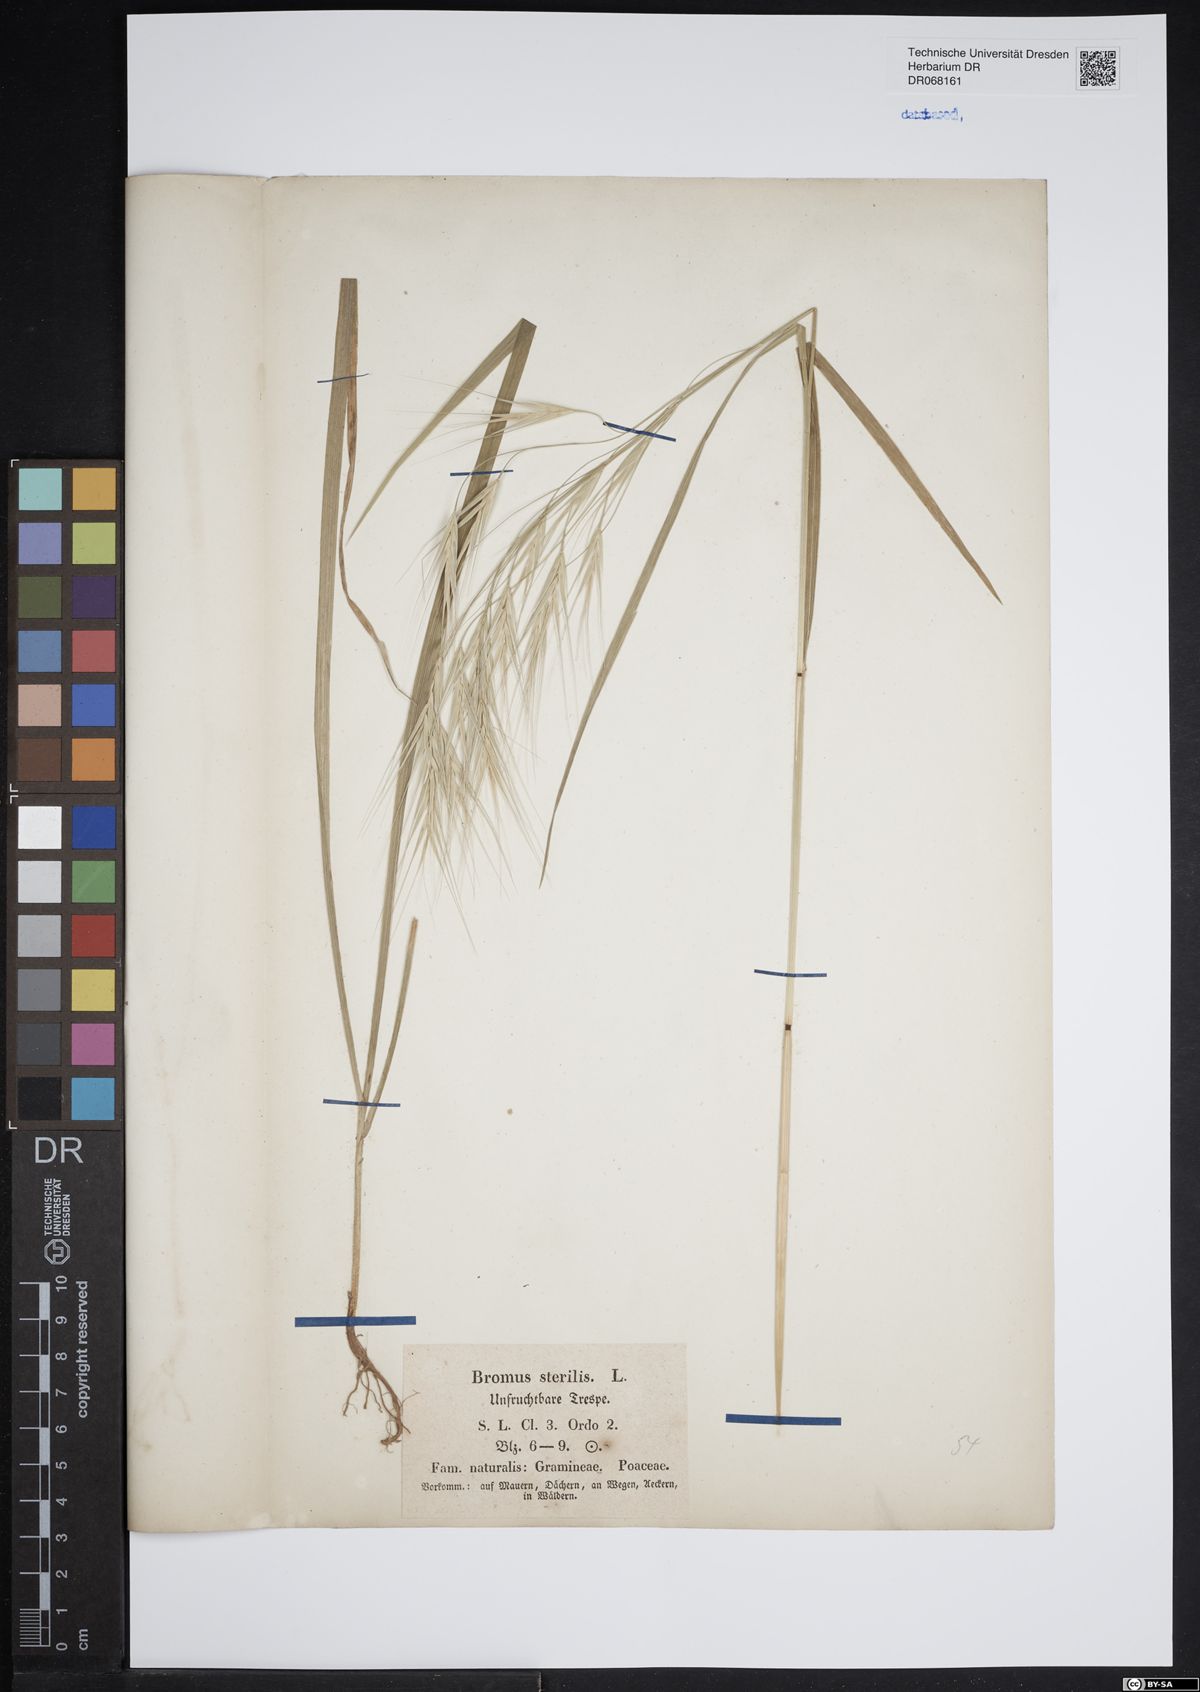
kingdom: Plantae
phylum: Tracheophyta
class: Liliopsida
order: Poales
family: Poaceae
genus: Bromus
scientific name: Bromus sterilis
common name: Poverty brome
